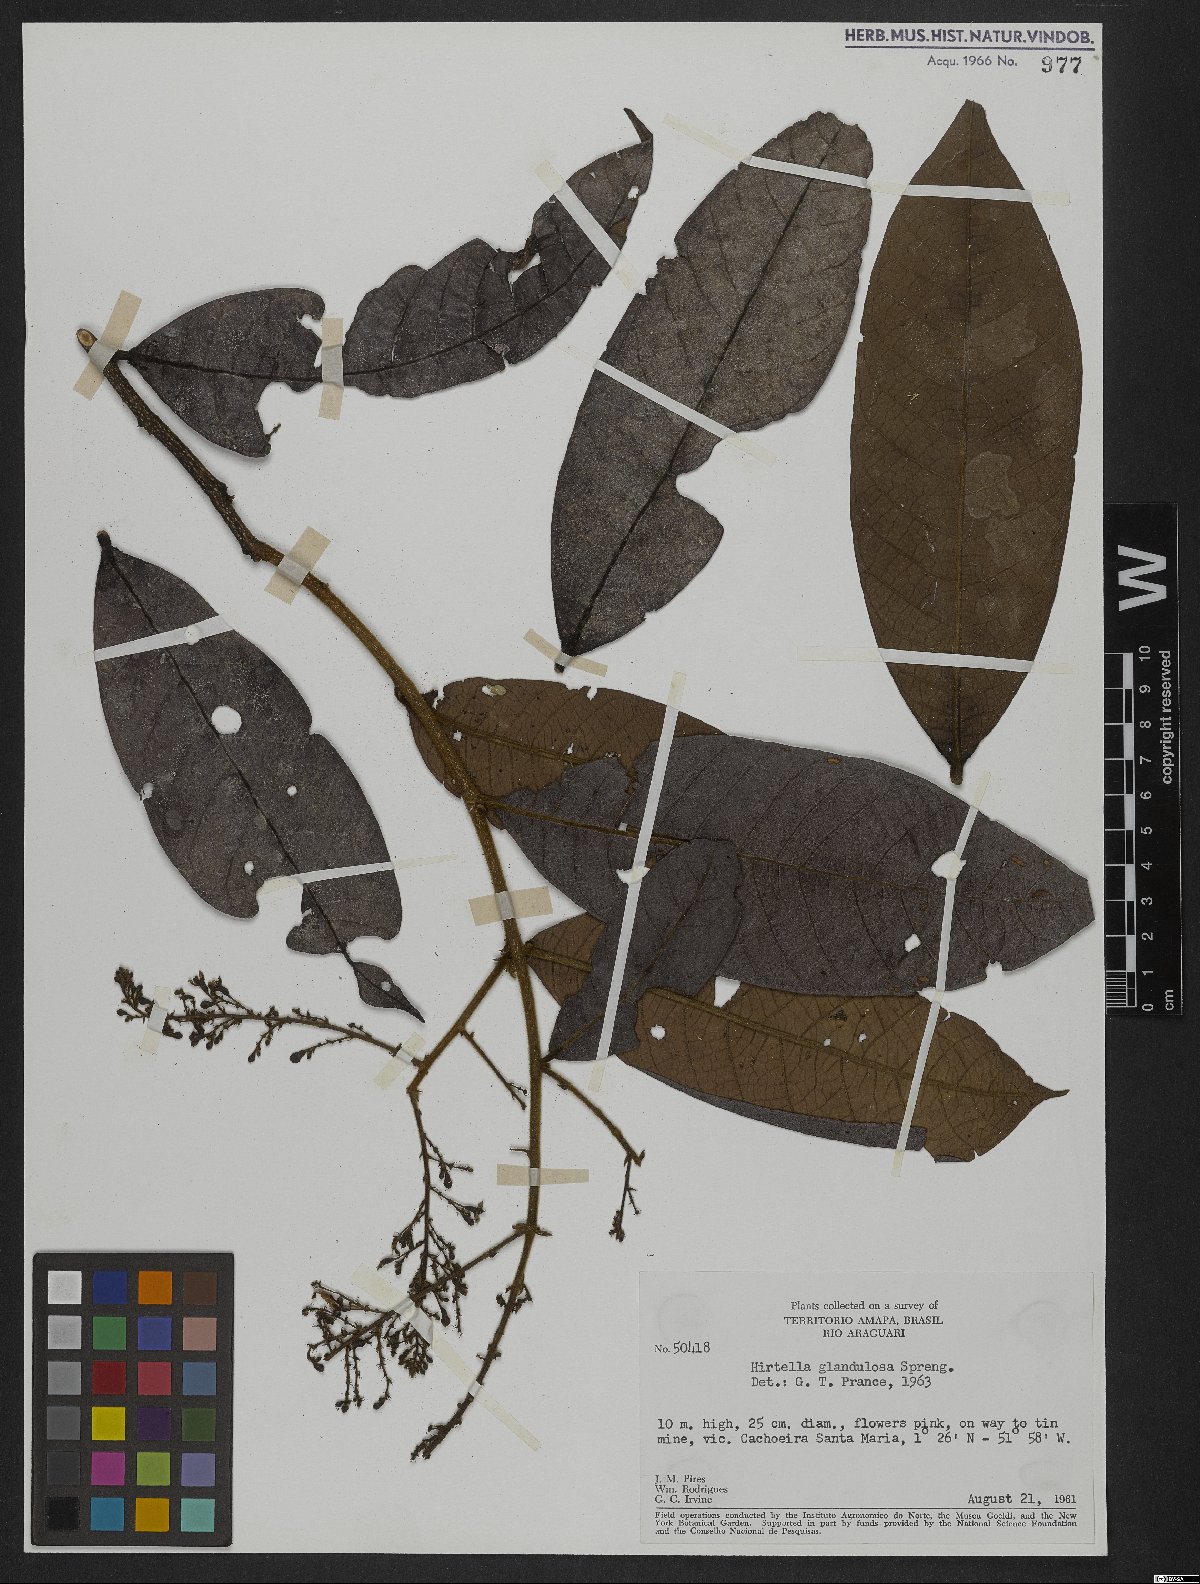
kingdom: Plantae
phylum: Tracheophyta
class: Magnoliopsida
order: Malpighiales
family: Chrysobalanaceae
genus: Hirtella
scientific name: Hirtella glandulosa
